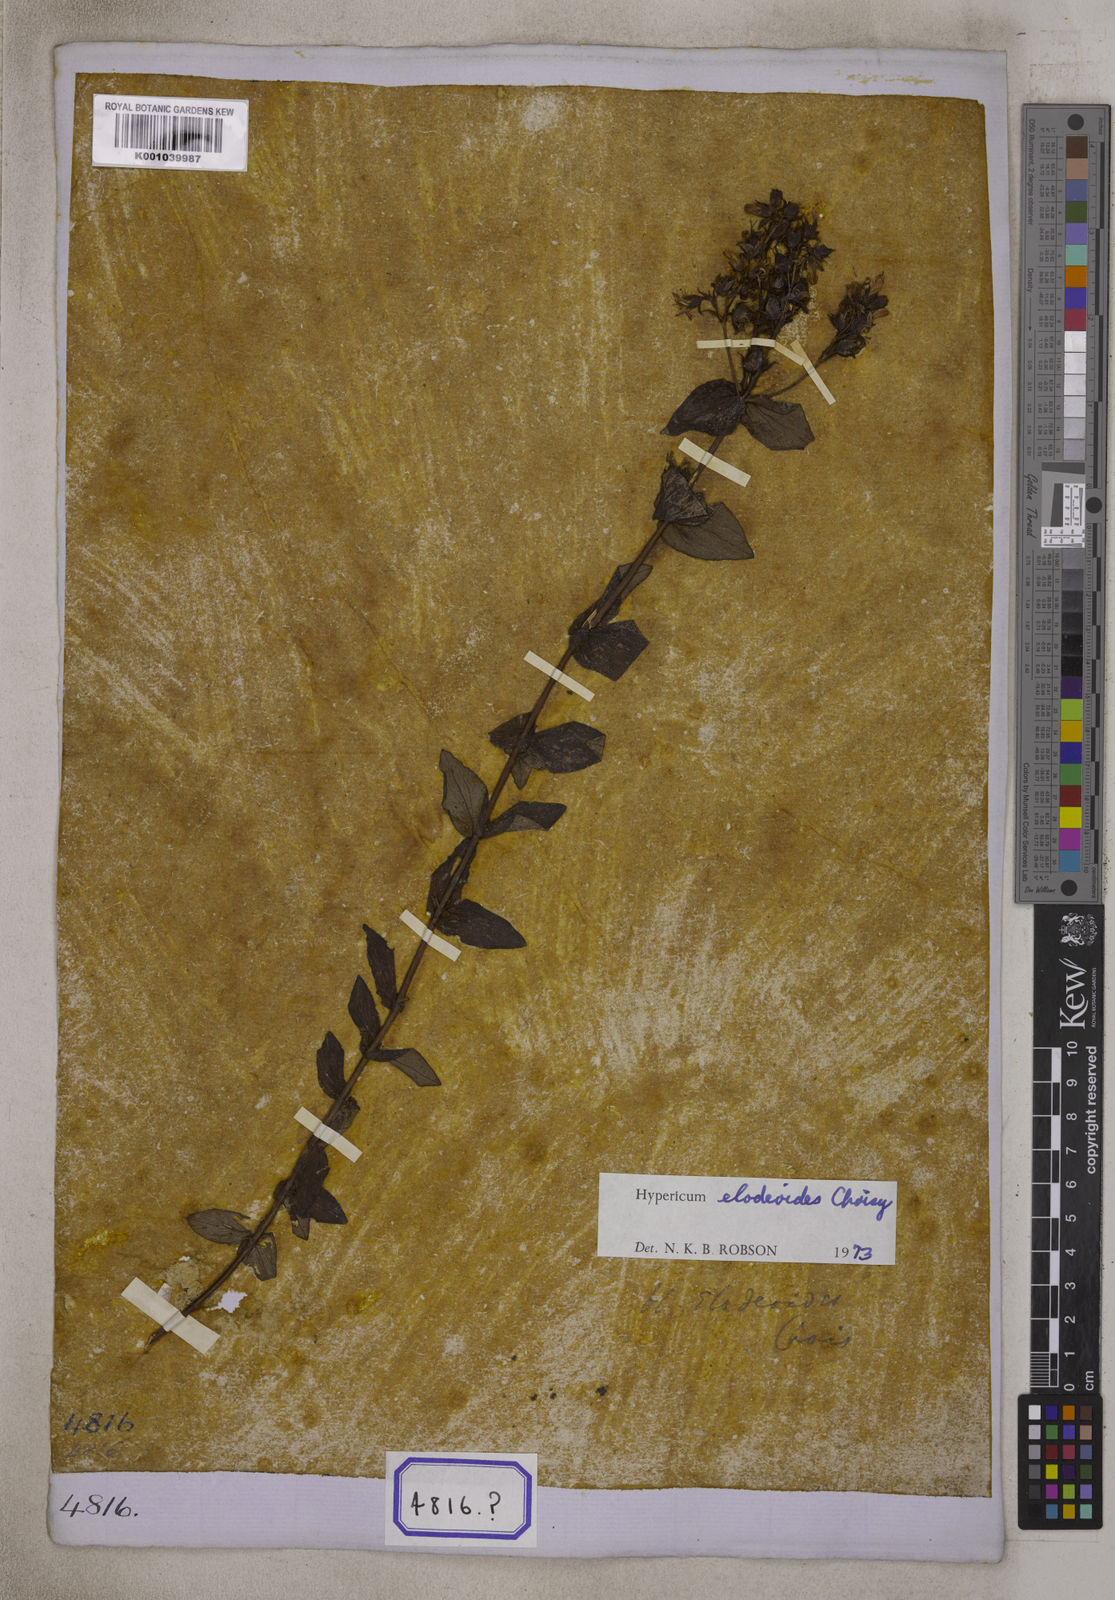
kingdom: Plantae
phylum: Tracheophyta
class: Magnoliopsida
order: Malpighiales
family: Hypericaceae
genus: Hypericum
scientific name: Hypericum
